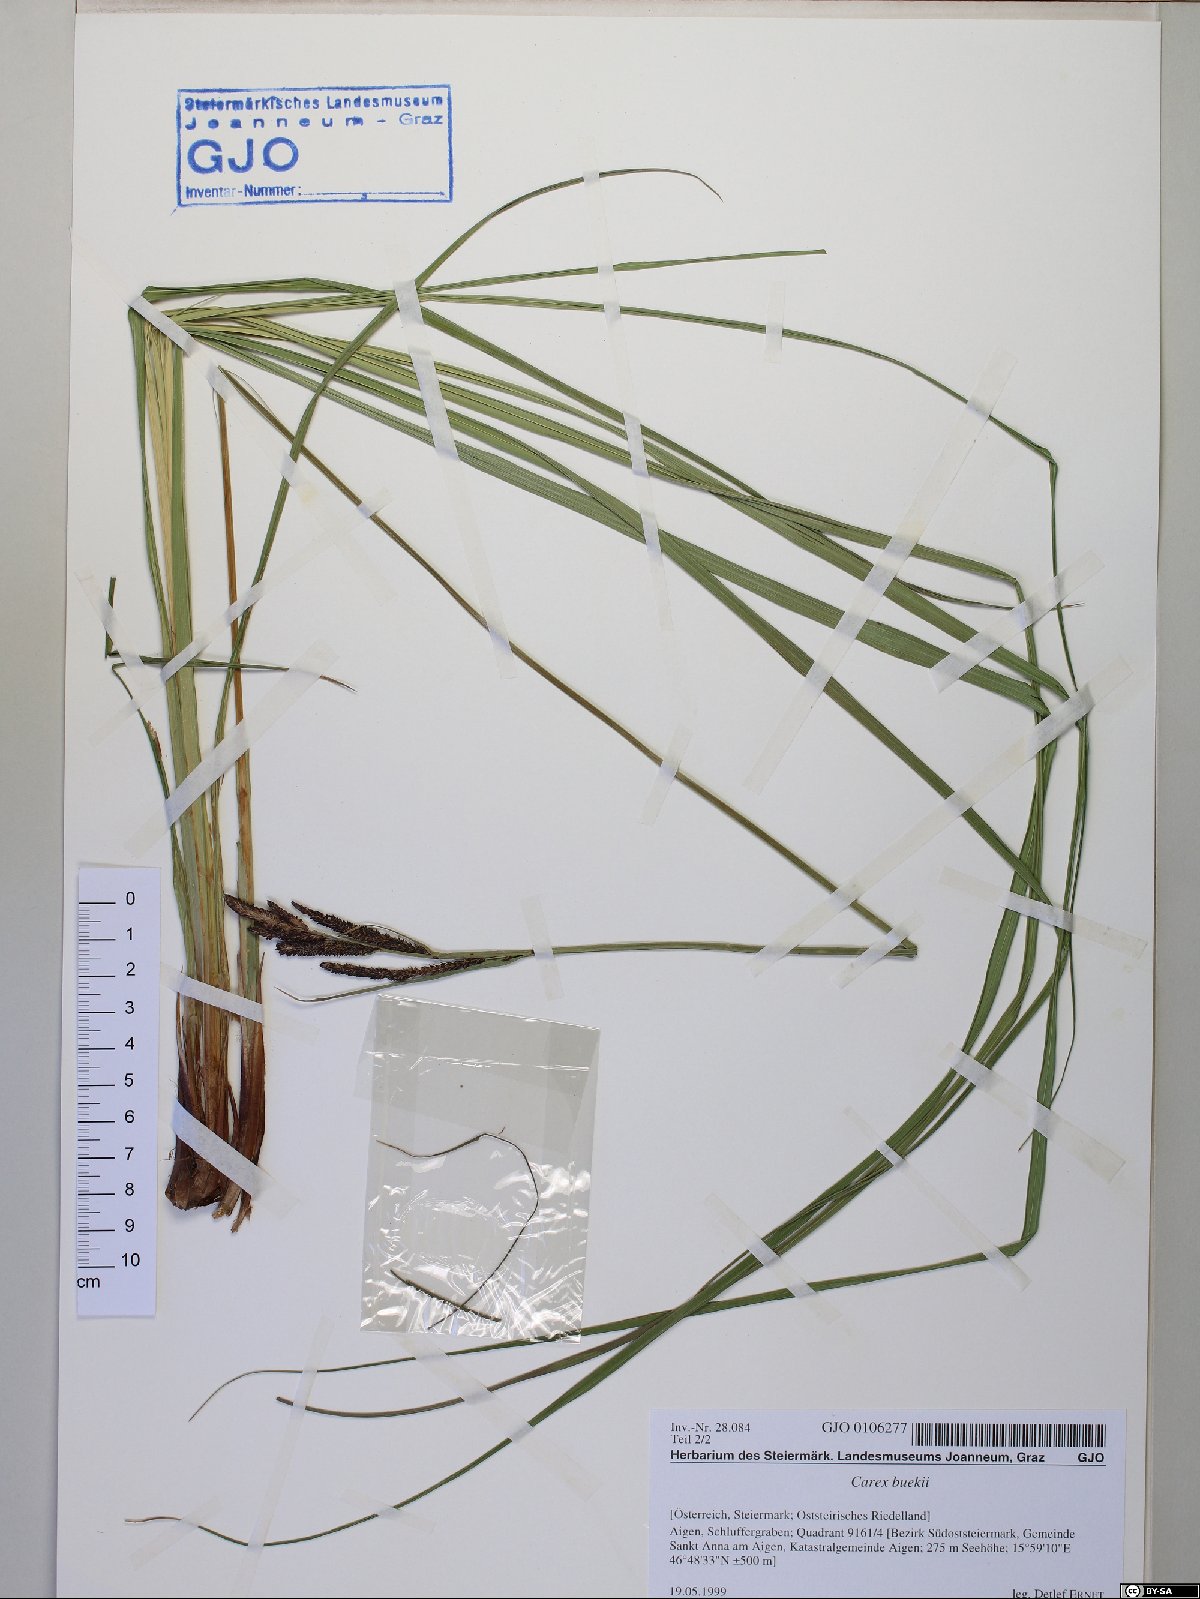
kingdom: Plantae
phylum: Tracheophyta
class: Liliopsida
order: Poales
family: Cyperaceae
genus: Carex
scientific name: Carex buekii
